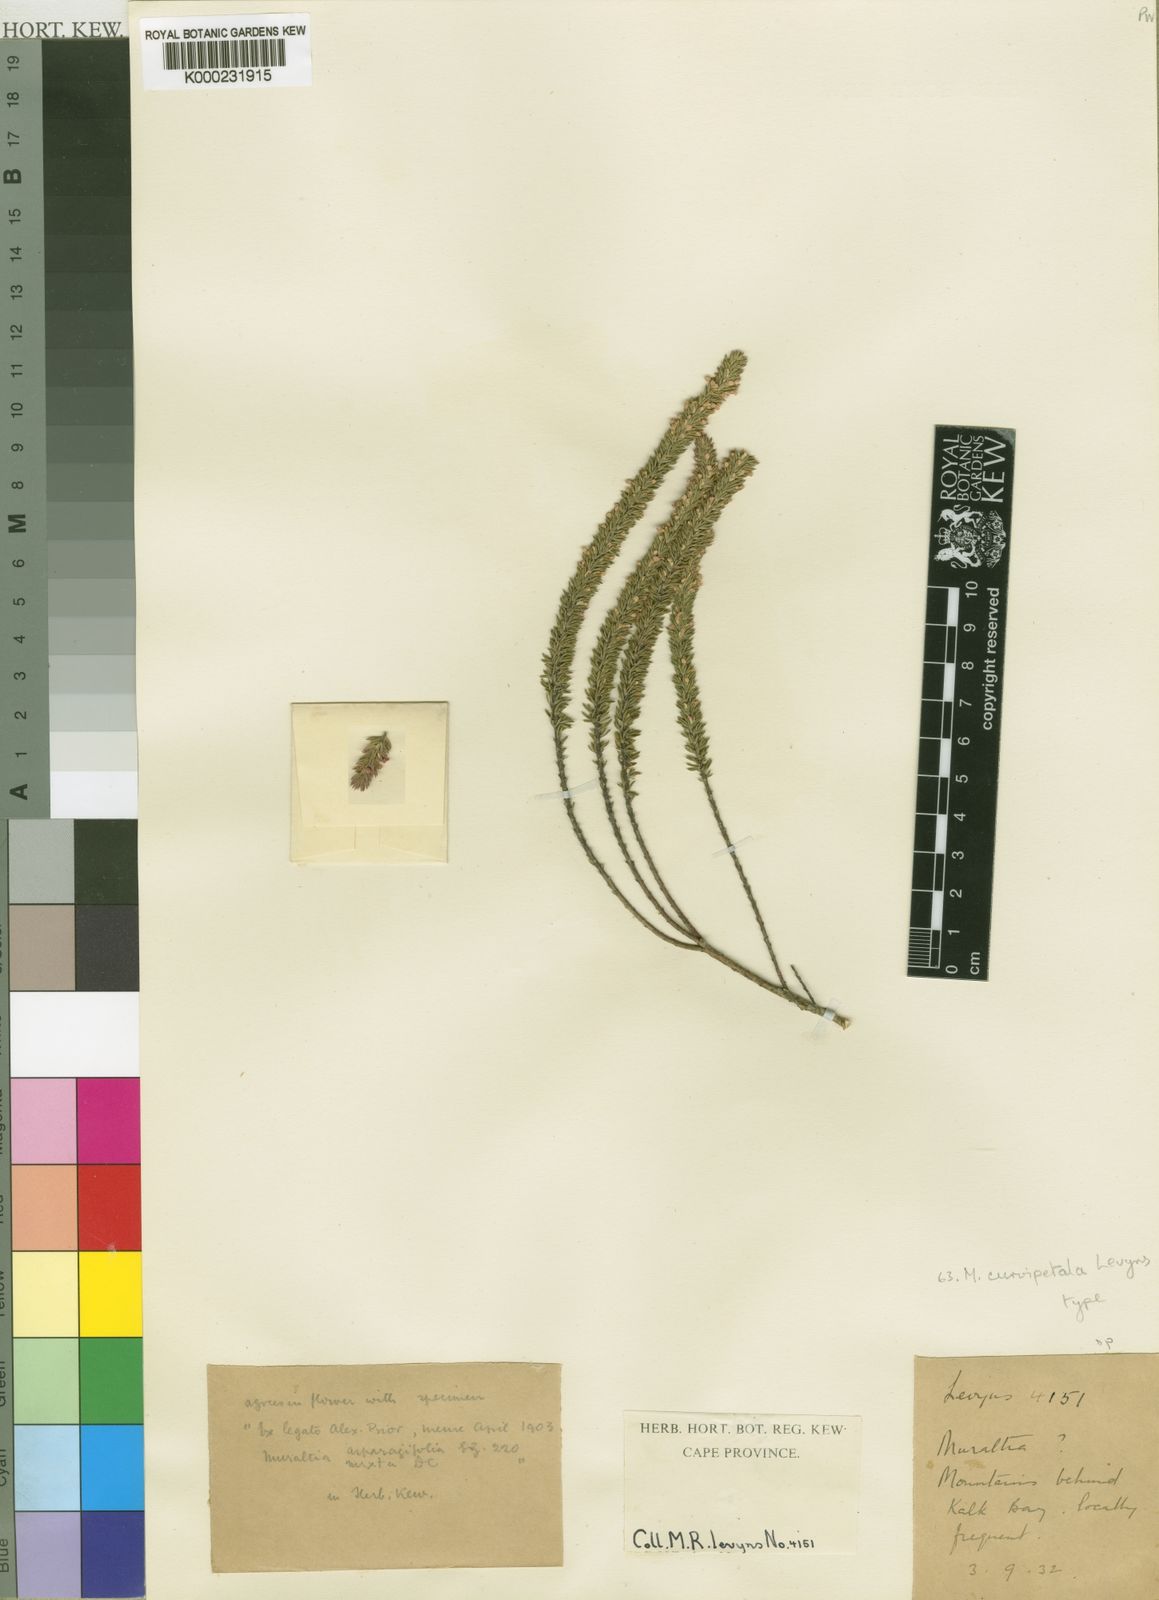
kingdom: Plantae
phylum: Tracheophyta
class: Magnoliopsida
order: Fabales
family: Polygalaceae
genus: Muraltia
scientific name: Muraltia curvipetala
